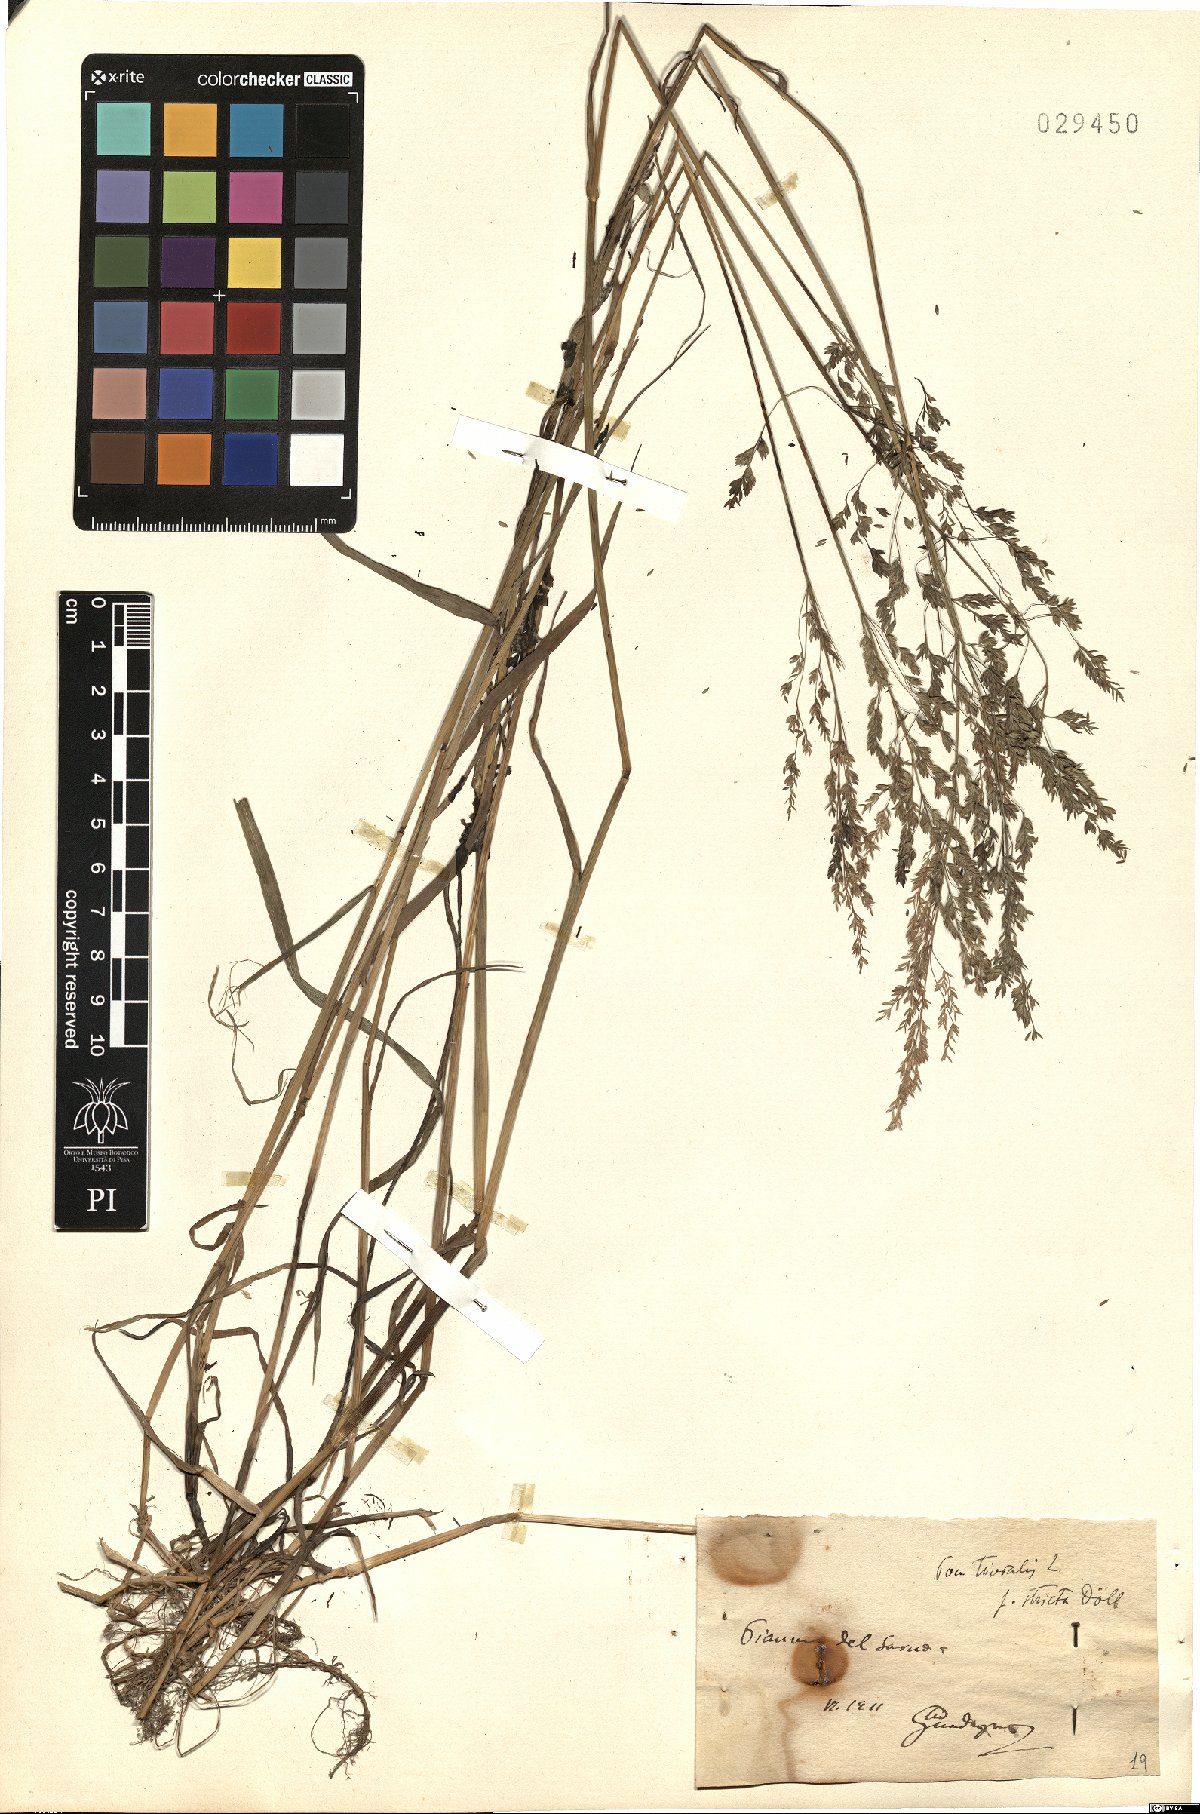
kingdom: Plantae
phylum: Tracheophyta
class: Liliopsida
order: Poales
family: Poaceae
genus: Poa
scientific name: Poa trivialis
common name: Rough bluegrass
